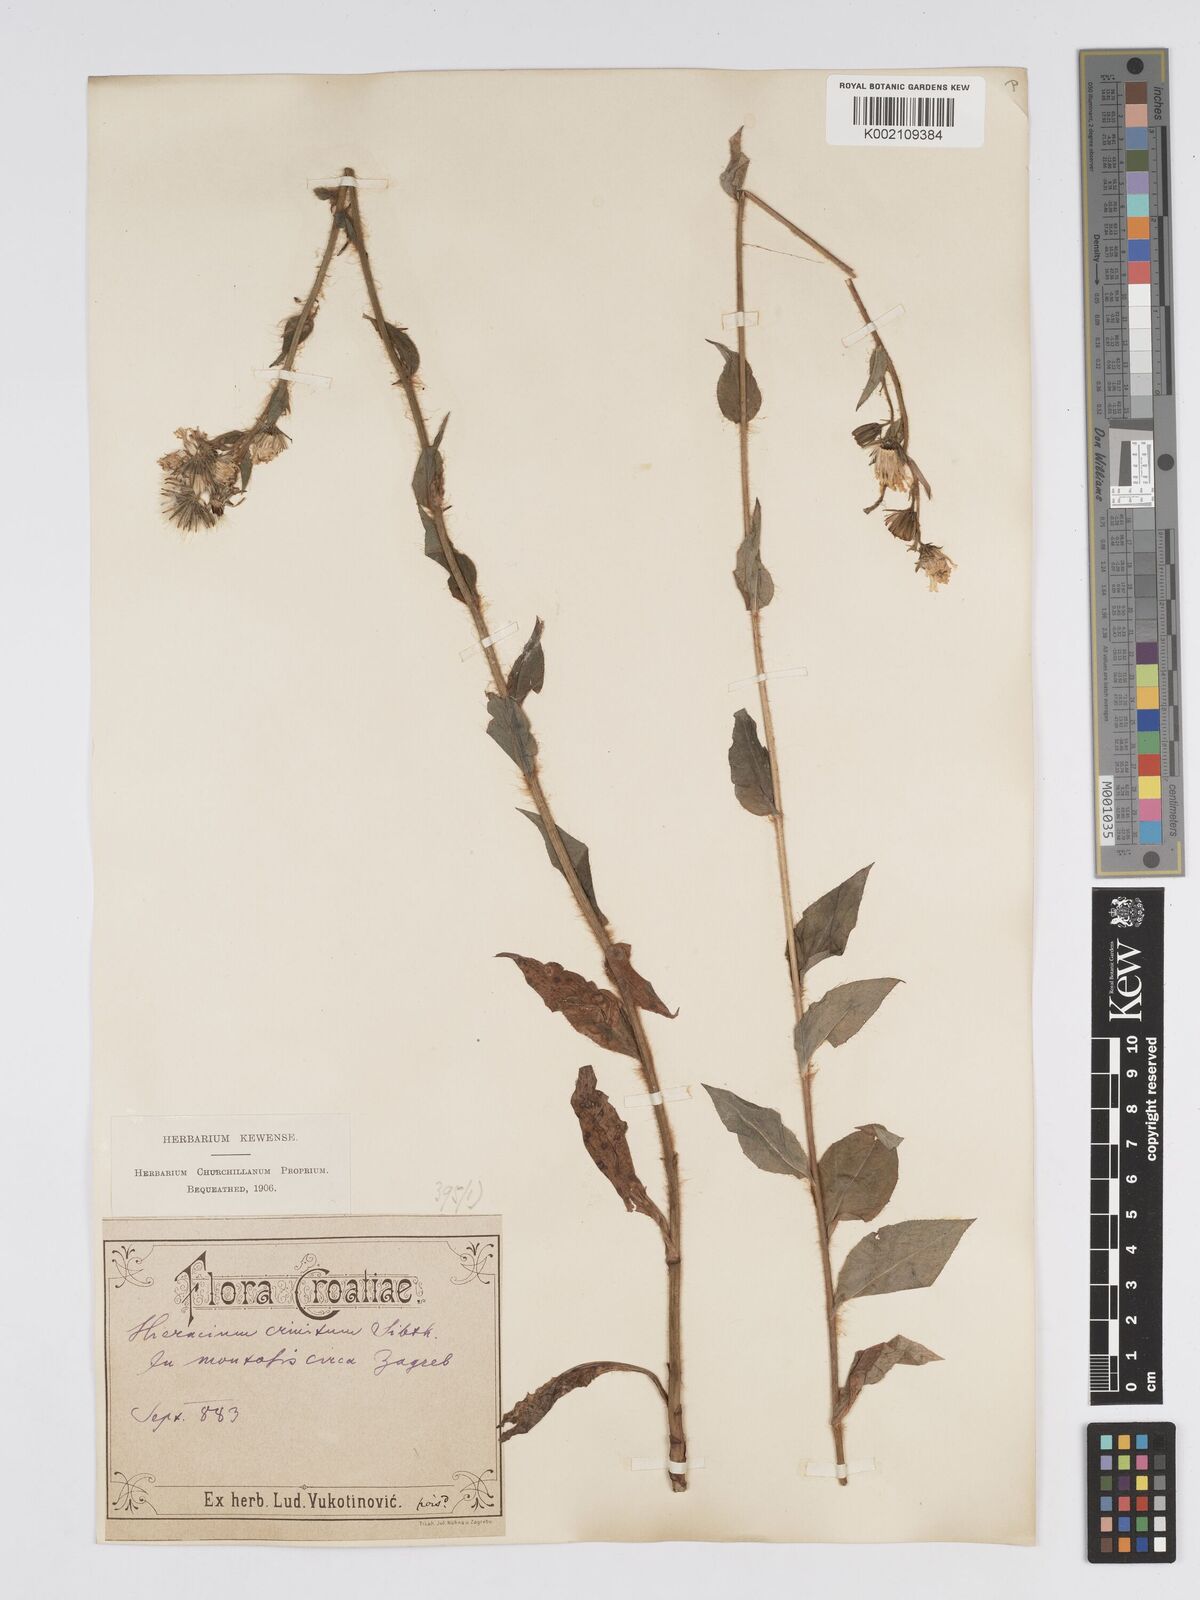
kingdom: Plantae
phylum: Tracheophyta
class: Magnoliopsida
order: Asterales
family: Asteraceae
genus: Hieracium
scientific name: Hieracium racemosum
